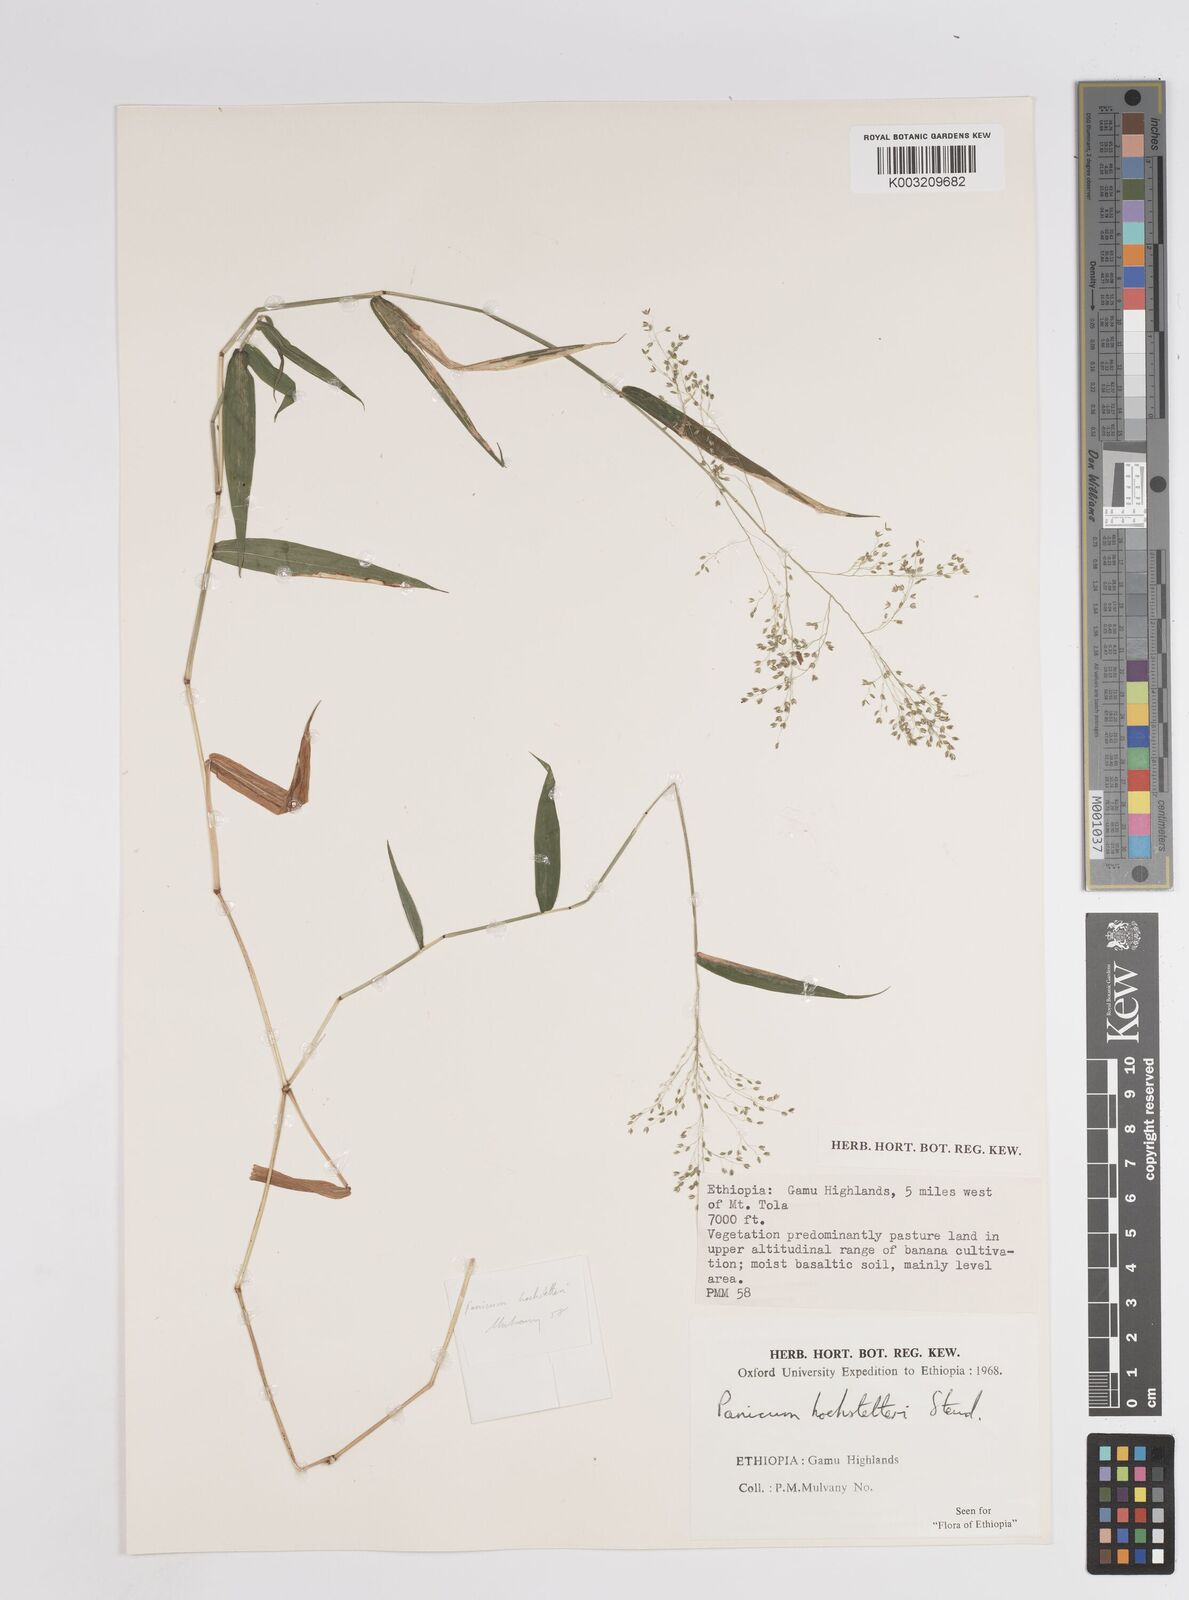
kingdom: Plantae
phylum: Tracheophyta
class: Liliopsida
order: Poales
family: Poaceae
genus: Panicum
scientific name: Panicum hochstetteri
